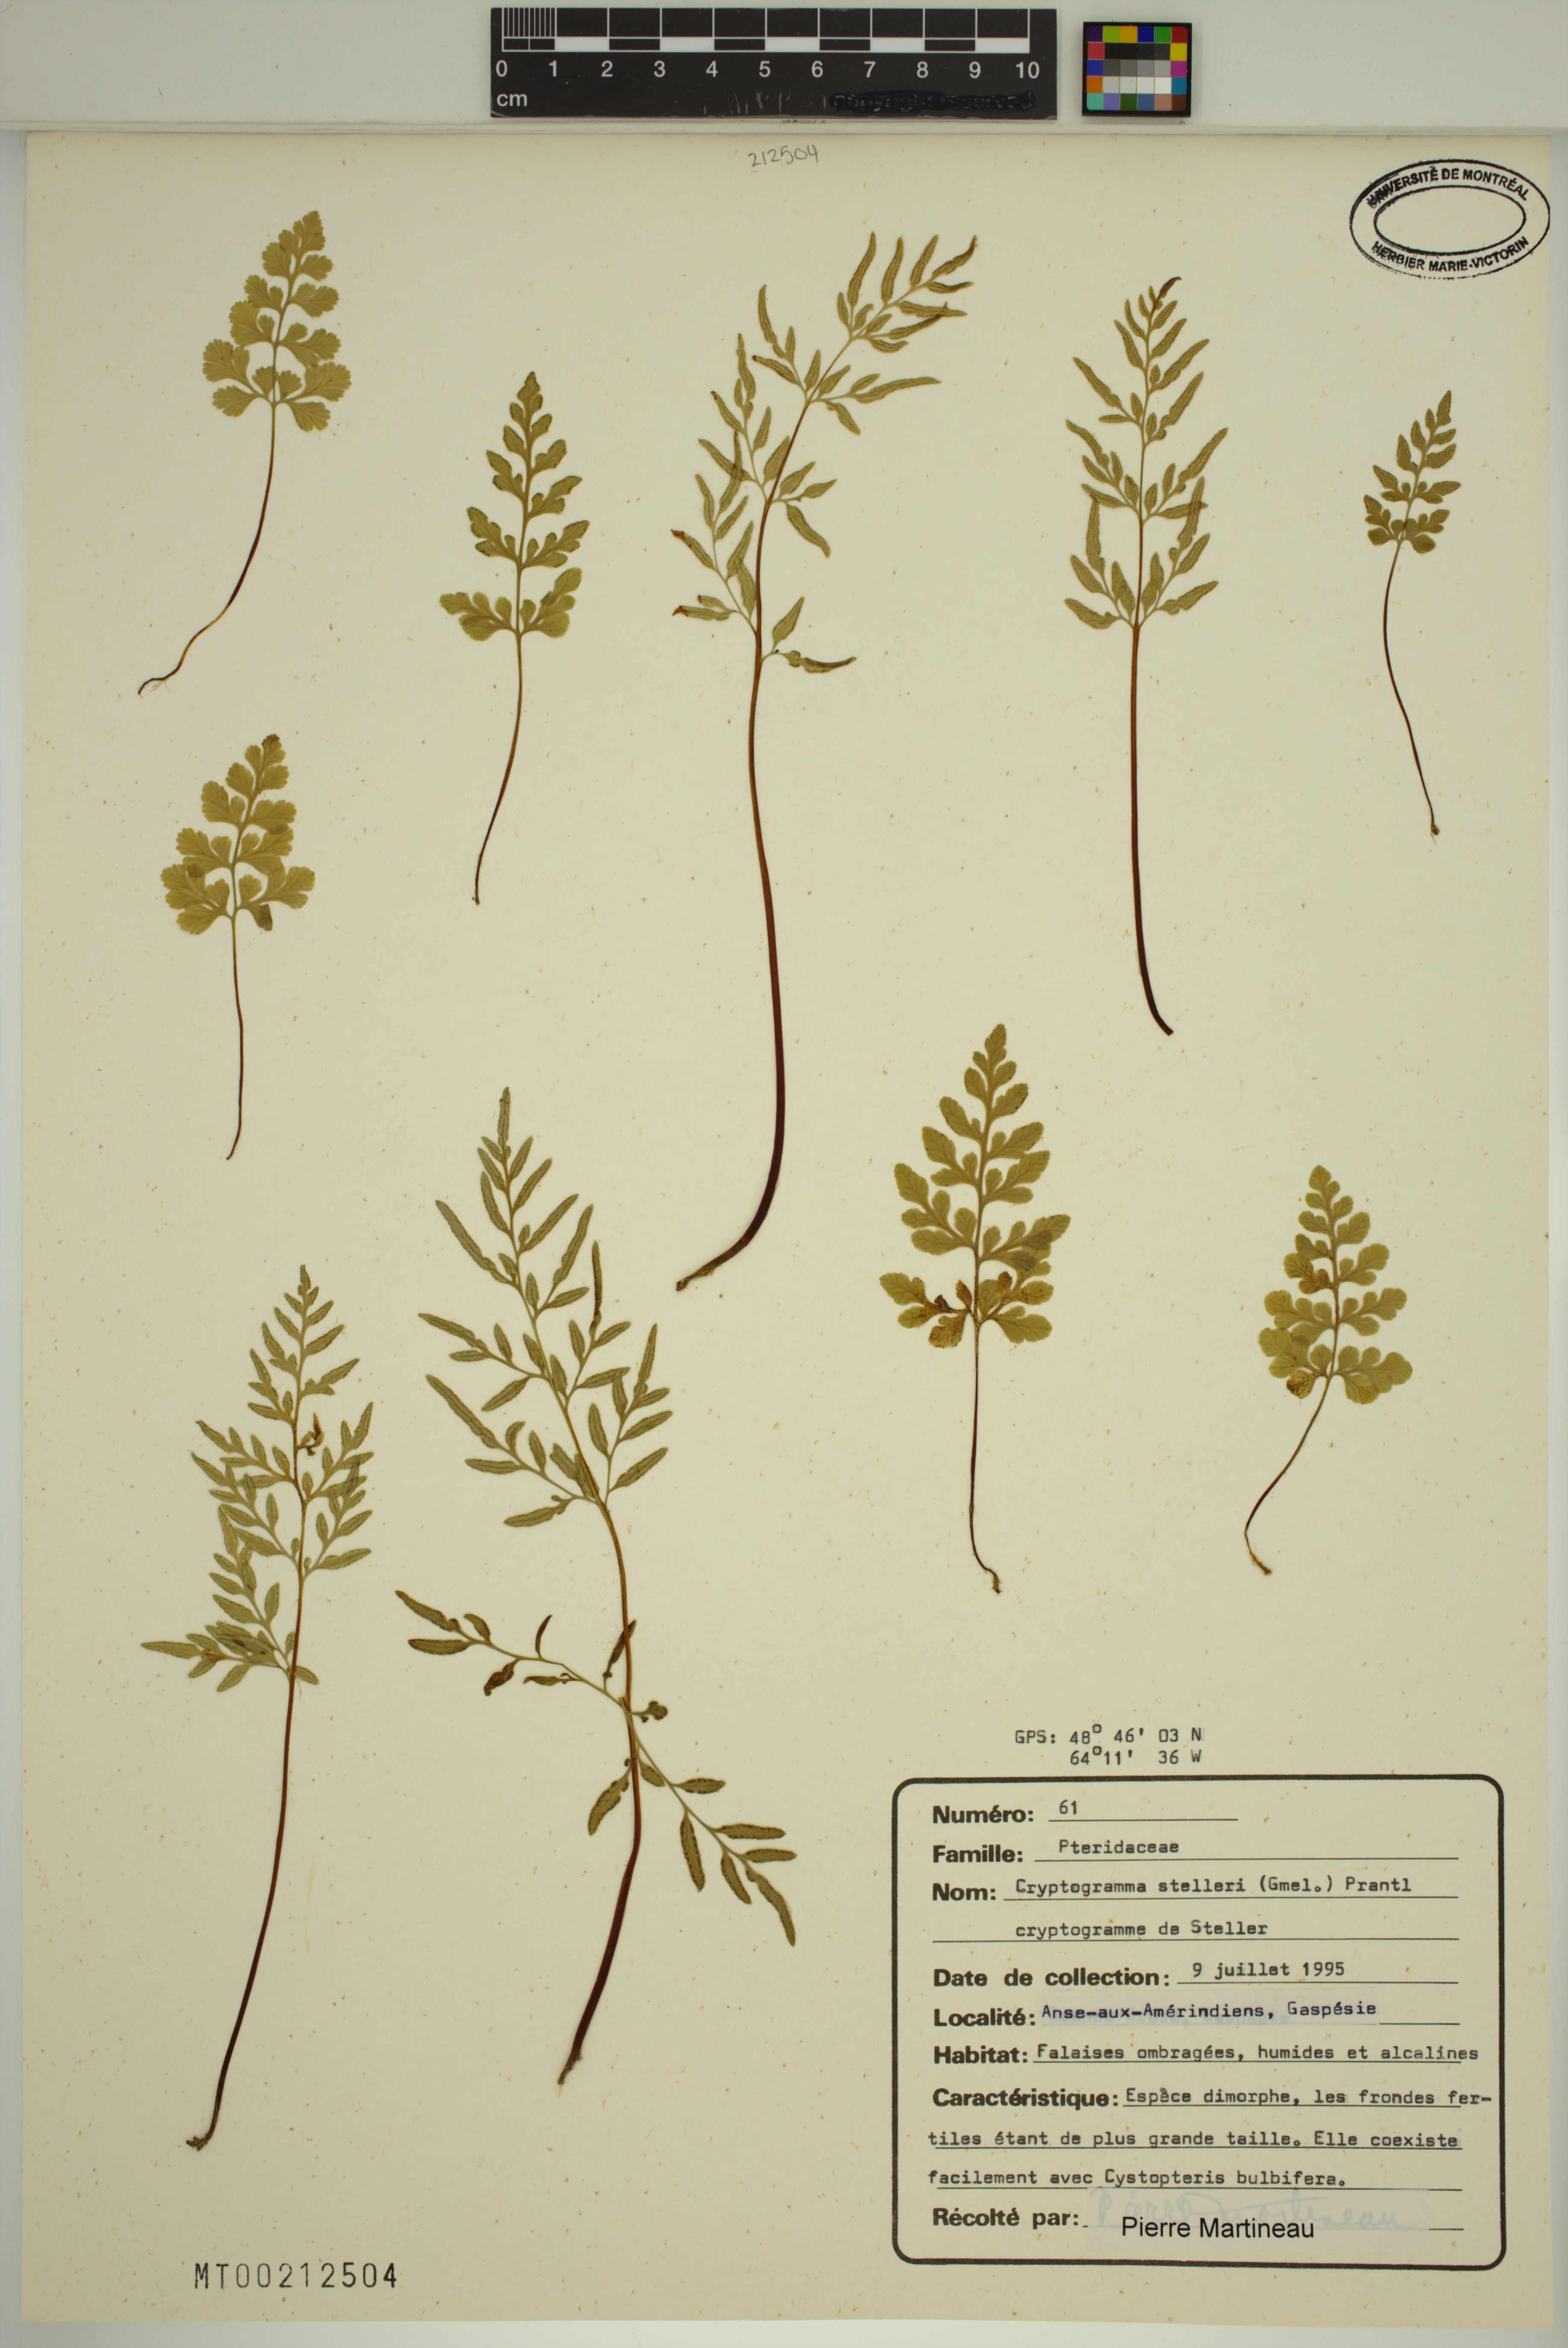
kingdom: Plantae
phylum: Tracheophyta
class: Polypodiopsida
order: Polypodiales
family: Pteridaceae
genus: Cryptogramma
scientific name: Cryptogramma stelleri
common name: Cliff-brake
